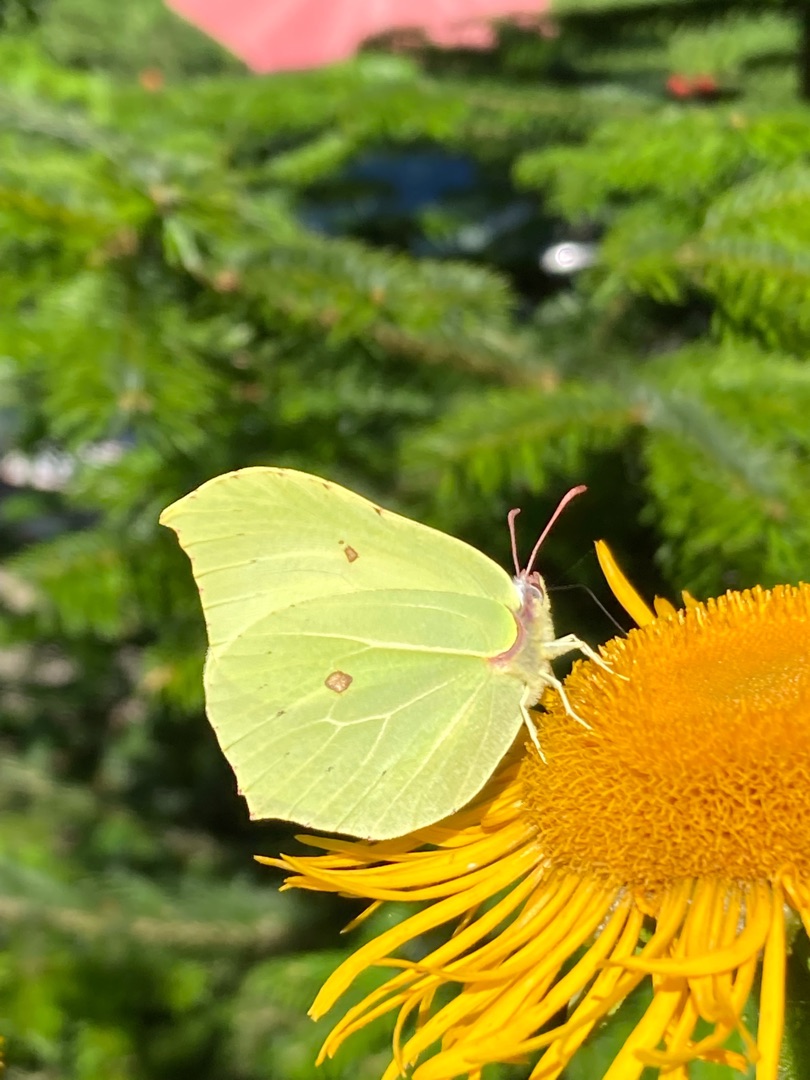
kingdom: Animalia
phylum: Arthropoda
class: Insecta
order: Lepidoptera
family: Pieridae
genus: Gonepteryx
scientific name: Gonepteryx rhamni
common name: Citronsommerfugl
